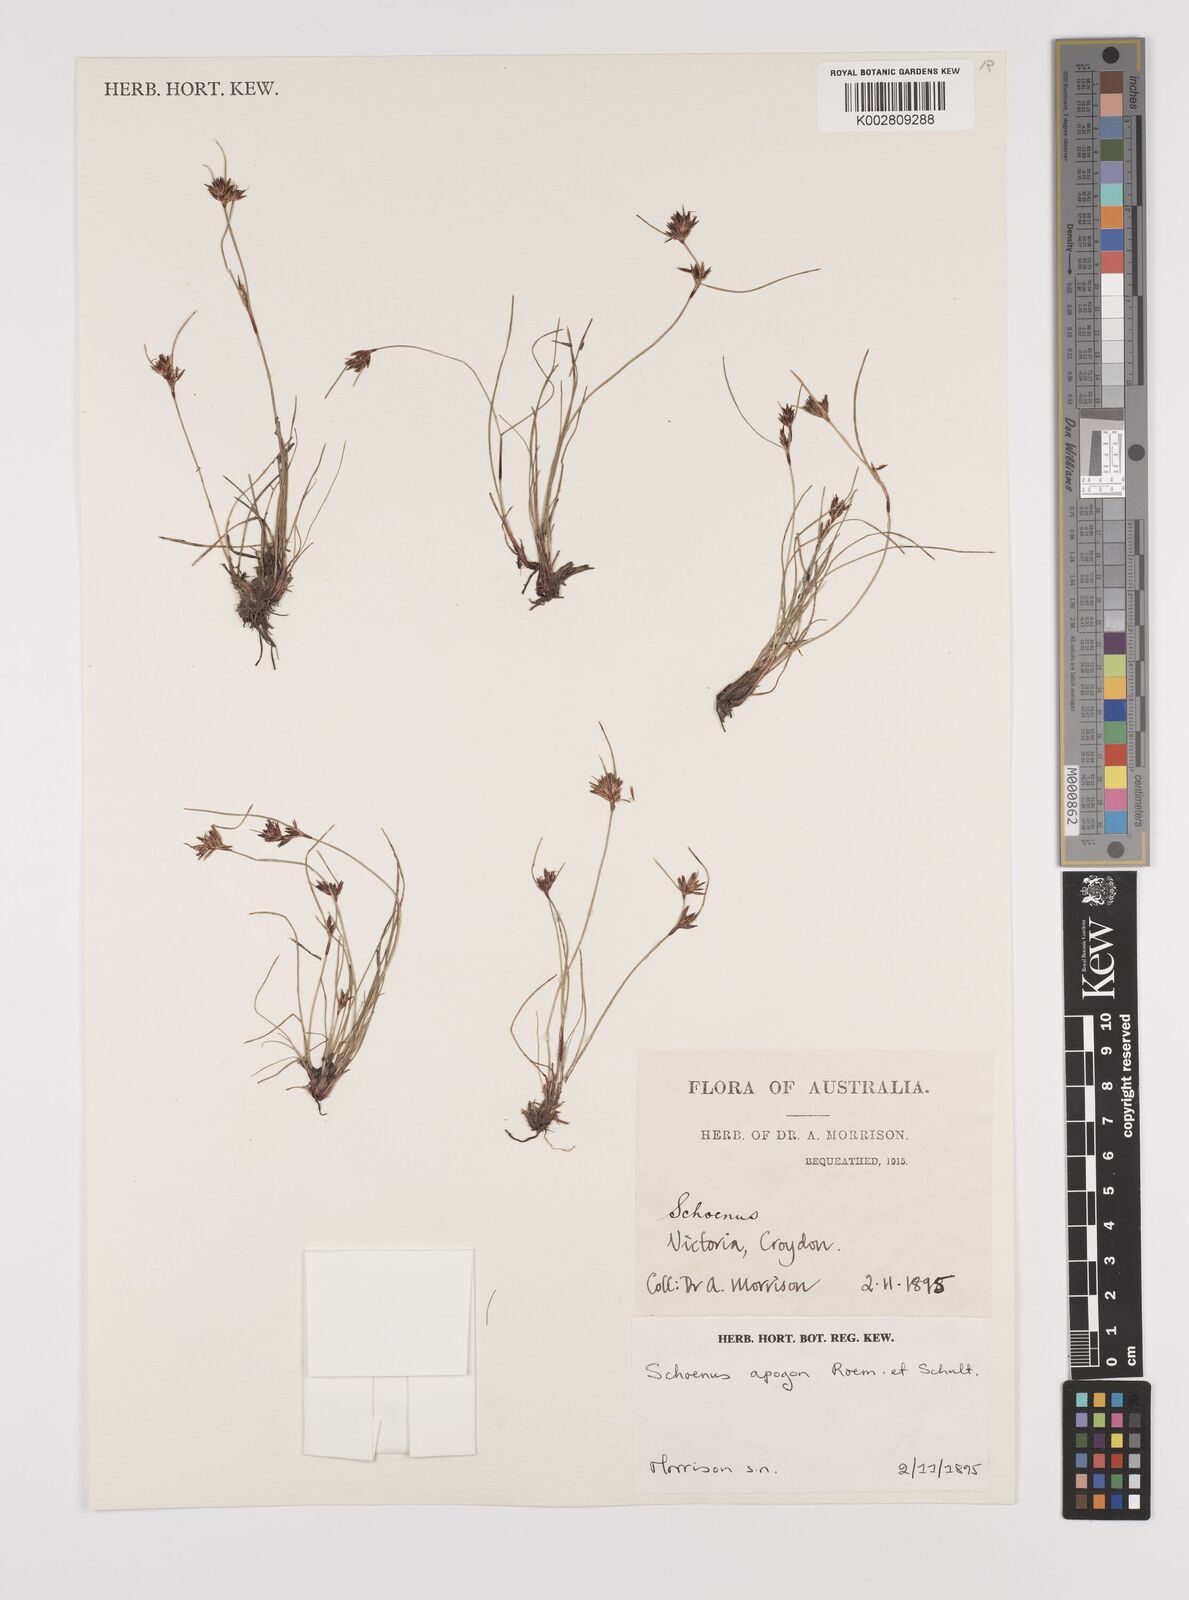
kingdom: Plantae
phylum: Tracheophyta
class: Liliopsida
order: Poales
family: Cyperaceae
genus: Schoenus
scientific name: Schoenus apogon
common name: Smooth bogrush
